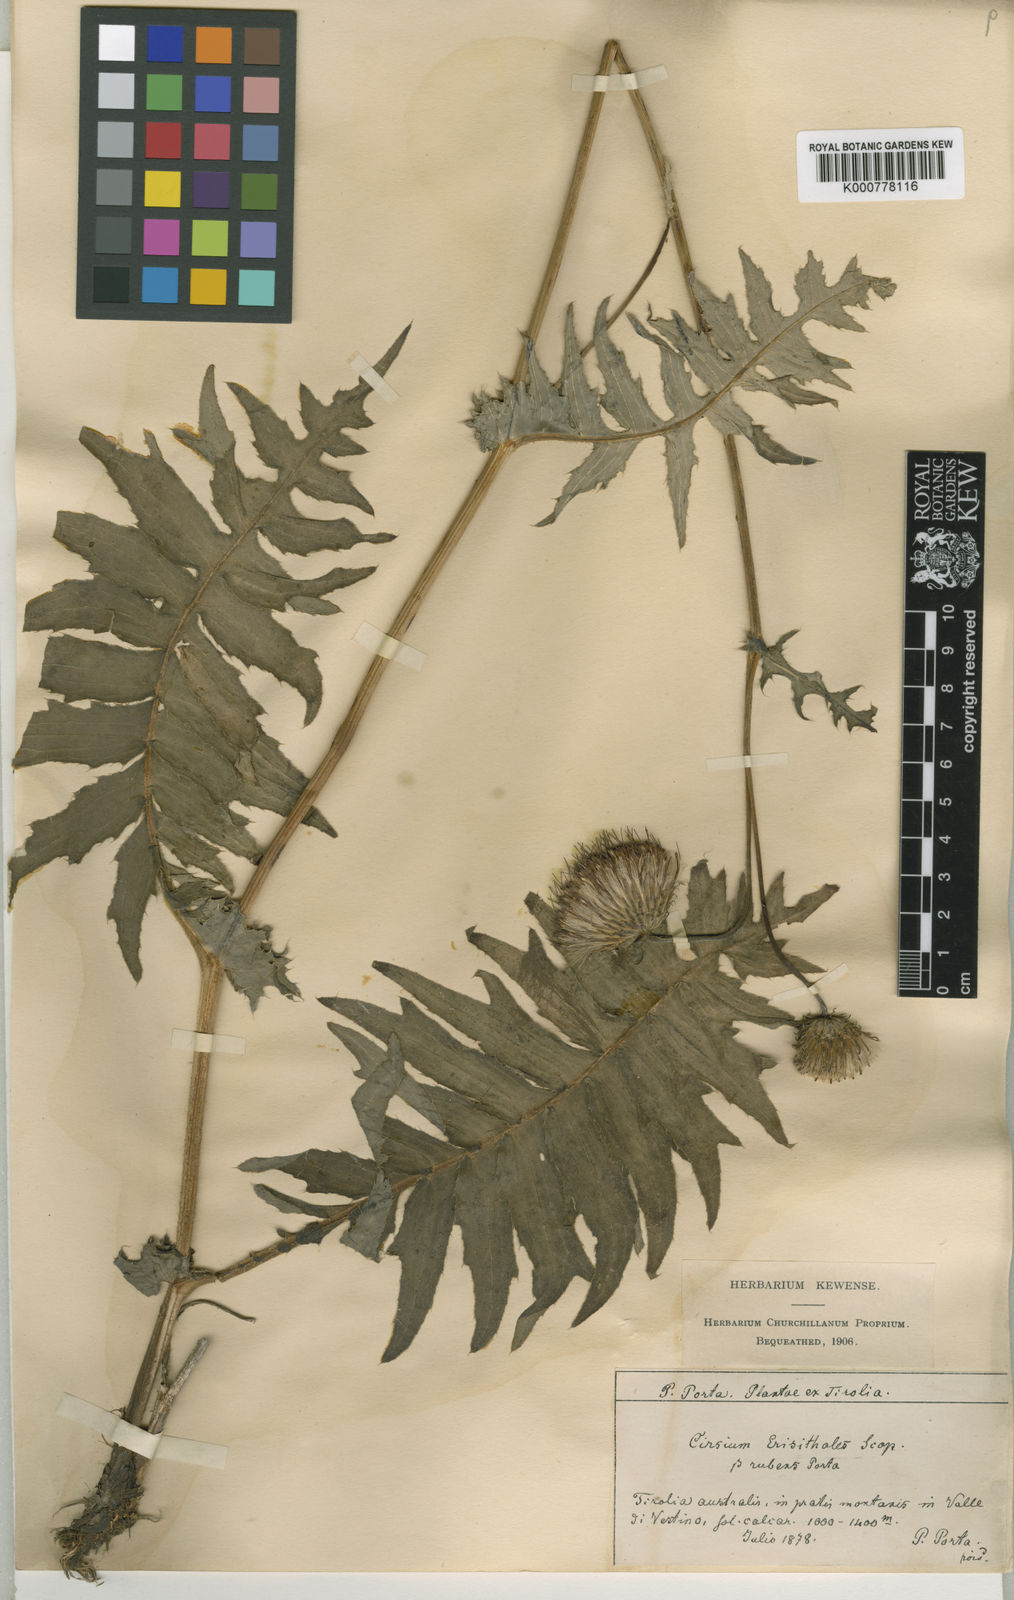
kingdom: Plantae
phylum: Tracheophyta
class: Magnoliopsida
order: Asterales
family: Asteraceae
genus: Cirsium
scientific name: Cirsium pannonicum
